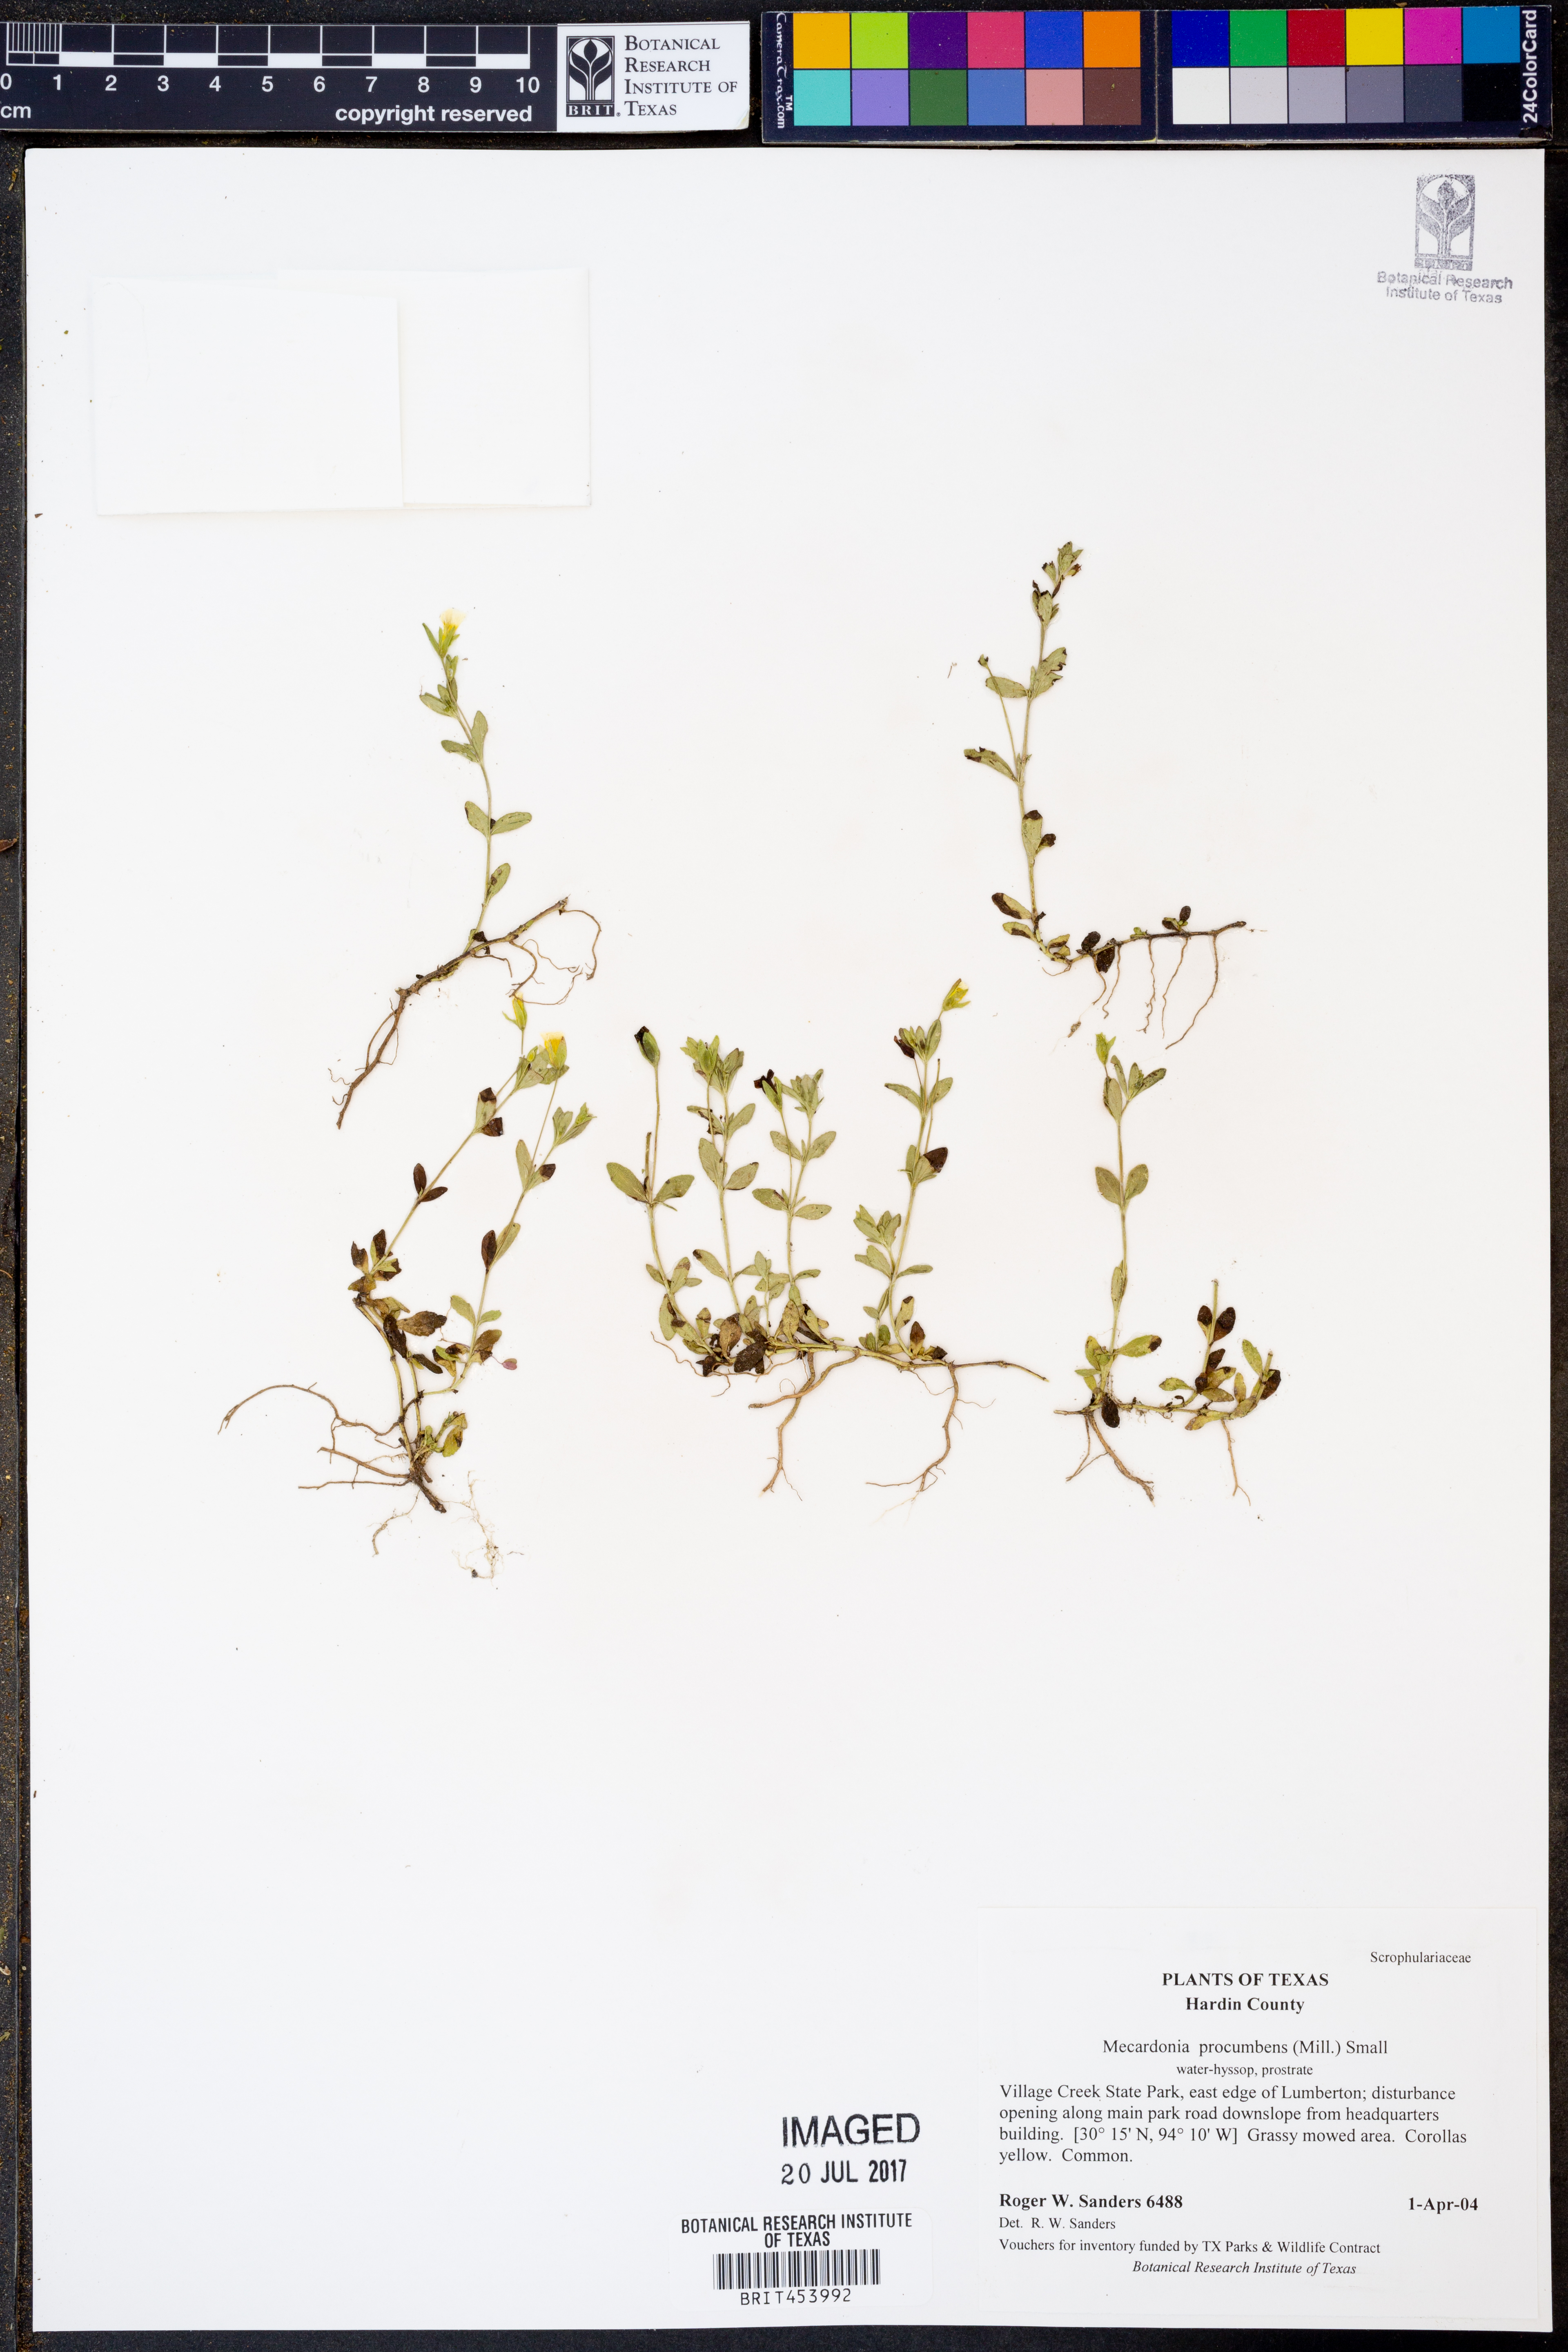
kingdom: Plantae
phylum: Tracheophyta
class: Magnoliopsida
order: Lamiales
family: Plantaginaceae
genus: Mecardonia
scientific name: Mecardonia procumbens
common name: Baby jump-up
